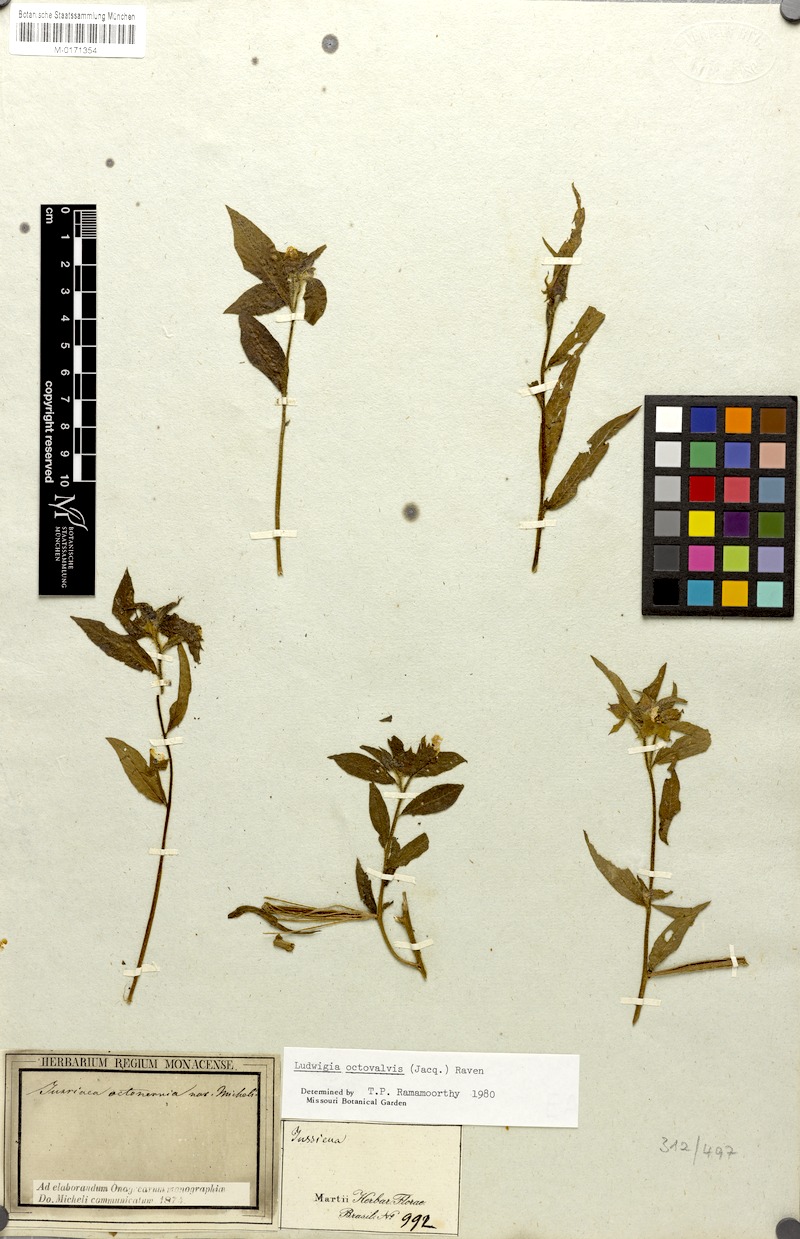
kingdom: Plantae
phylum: Tracheophyta
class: Magnoliopsida
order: Myrtales
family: Onagraceae
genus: Ludwigia
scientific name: Ludwigia octovalvis
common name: Water-primrose
